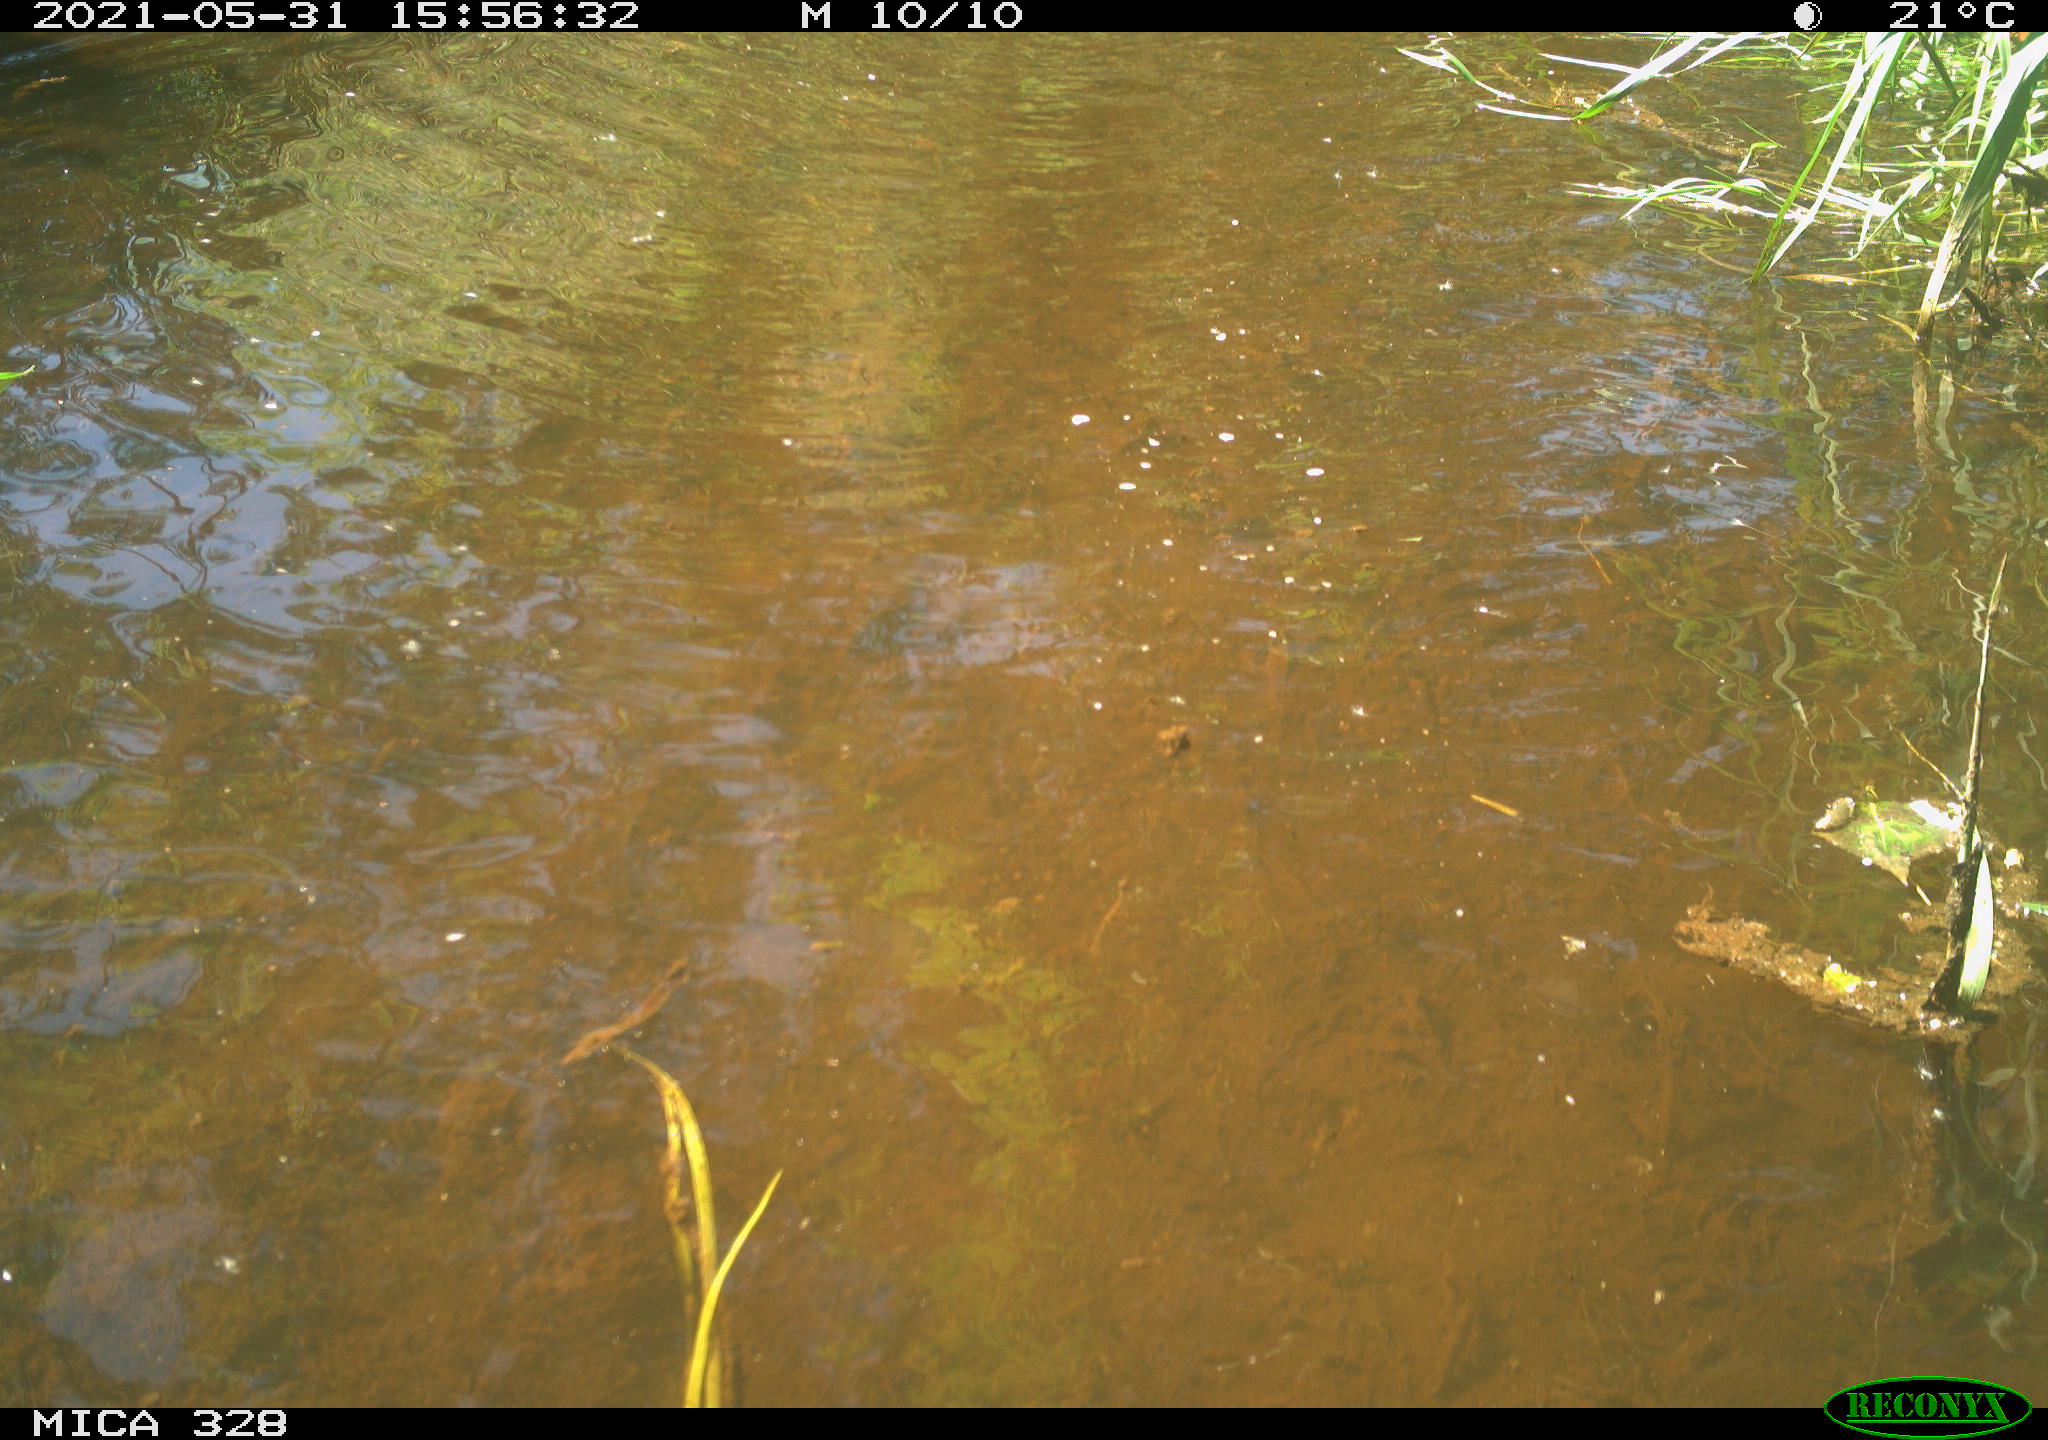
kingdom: Animalia
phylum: Chordata
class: Mammalia
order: Rodentia
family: Cricetidae
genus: Ondatra
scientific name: Ondatra zibethicus
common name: Muskrat
